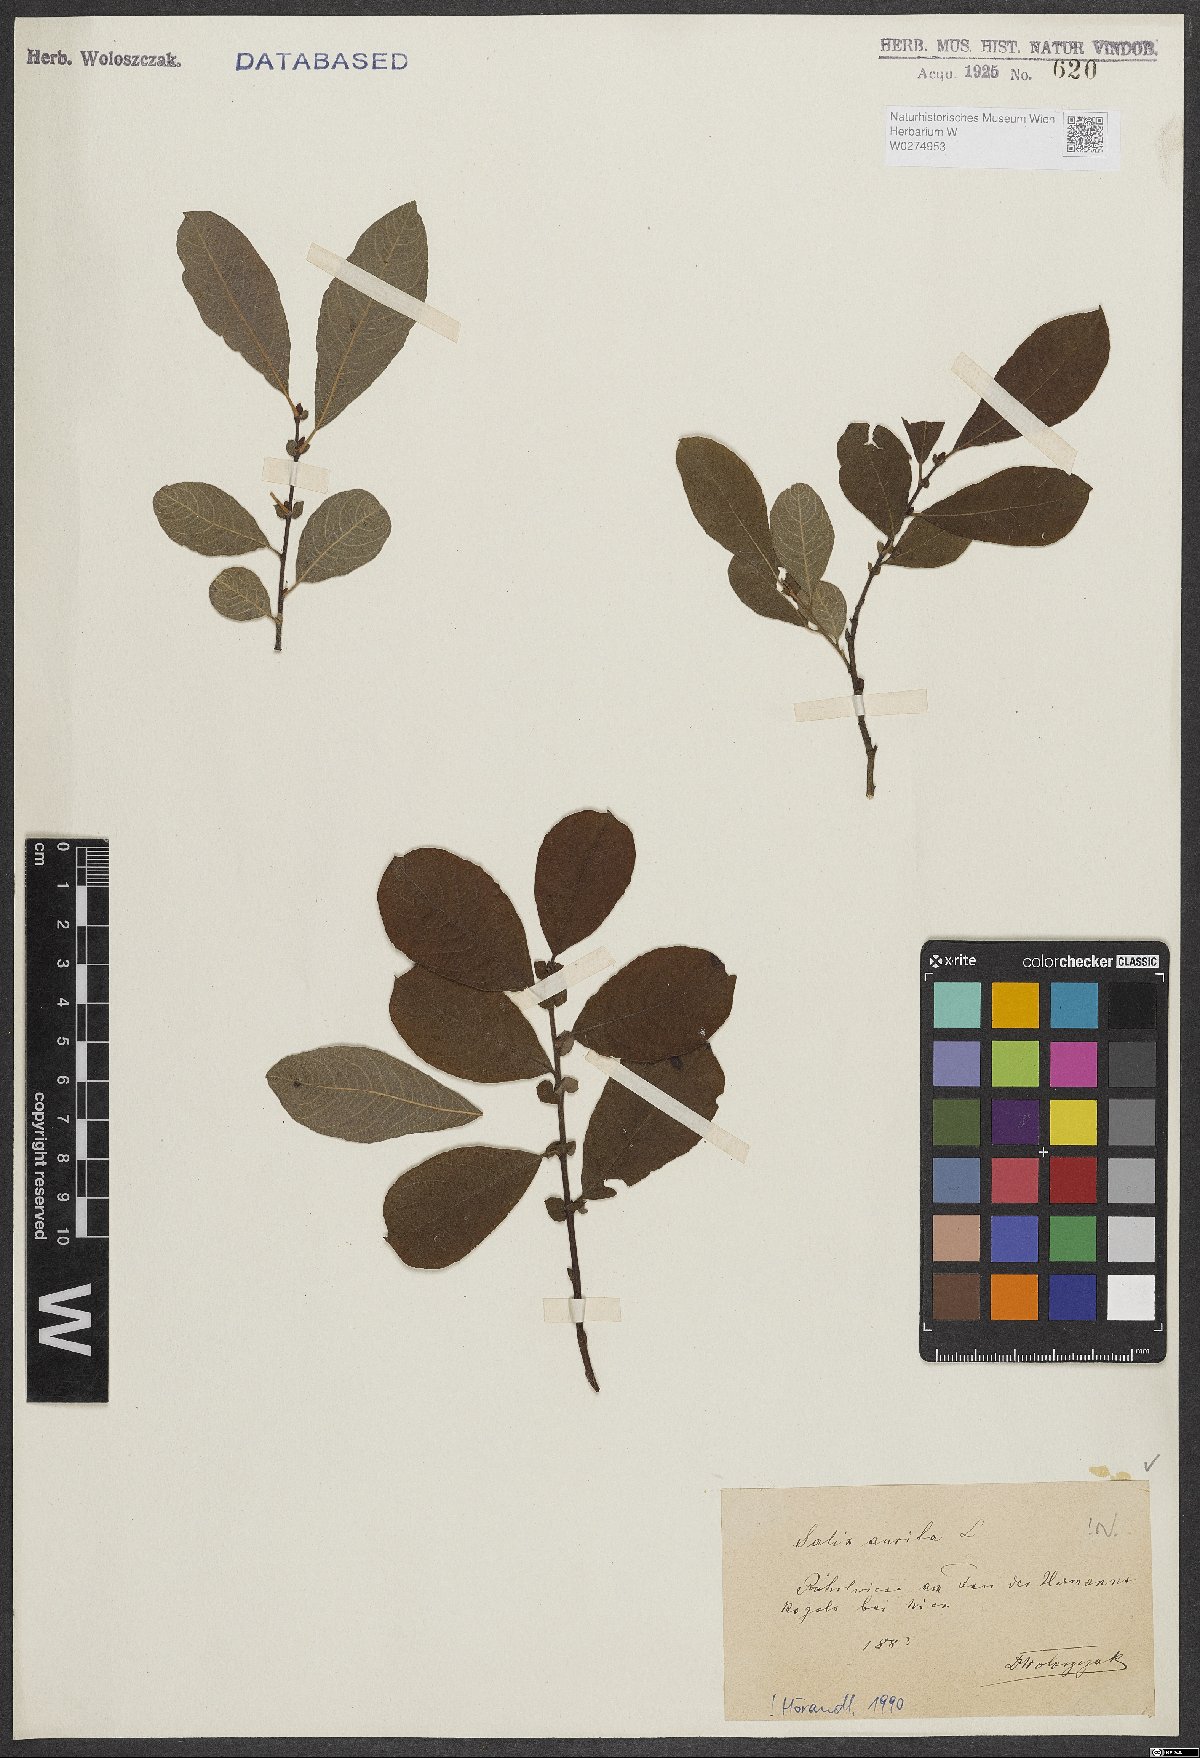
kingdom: Plantae
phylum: Tracheophyta
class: Magnoliopsida
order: Malpighiales
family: Salicaceae
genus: Salix
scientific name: Salix aurita
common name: Eared willow
